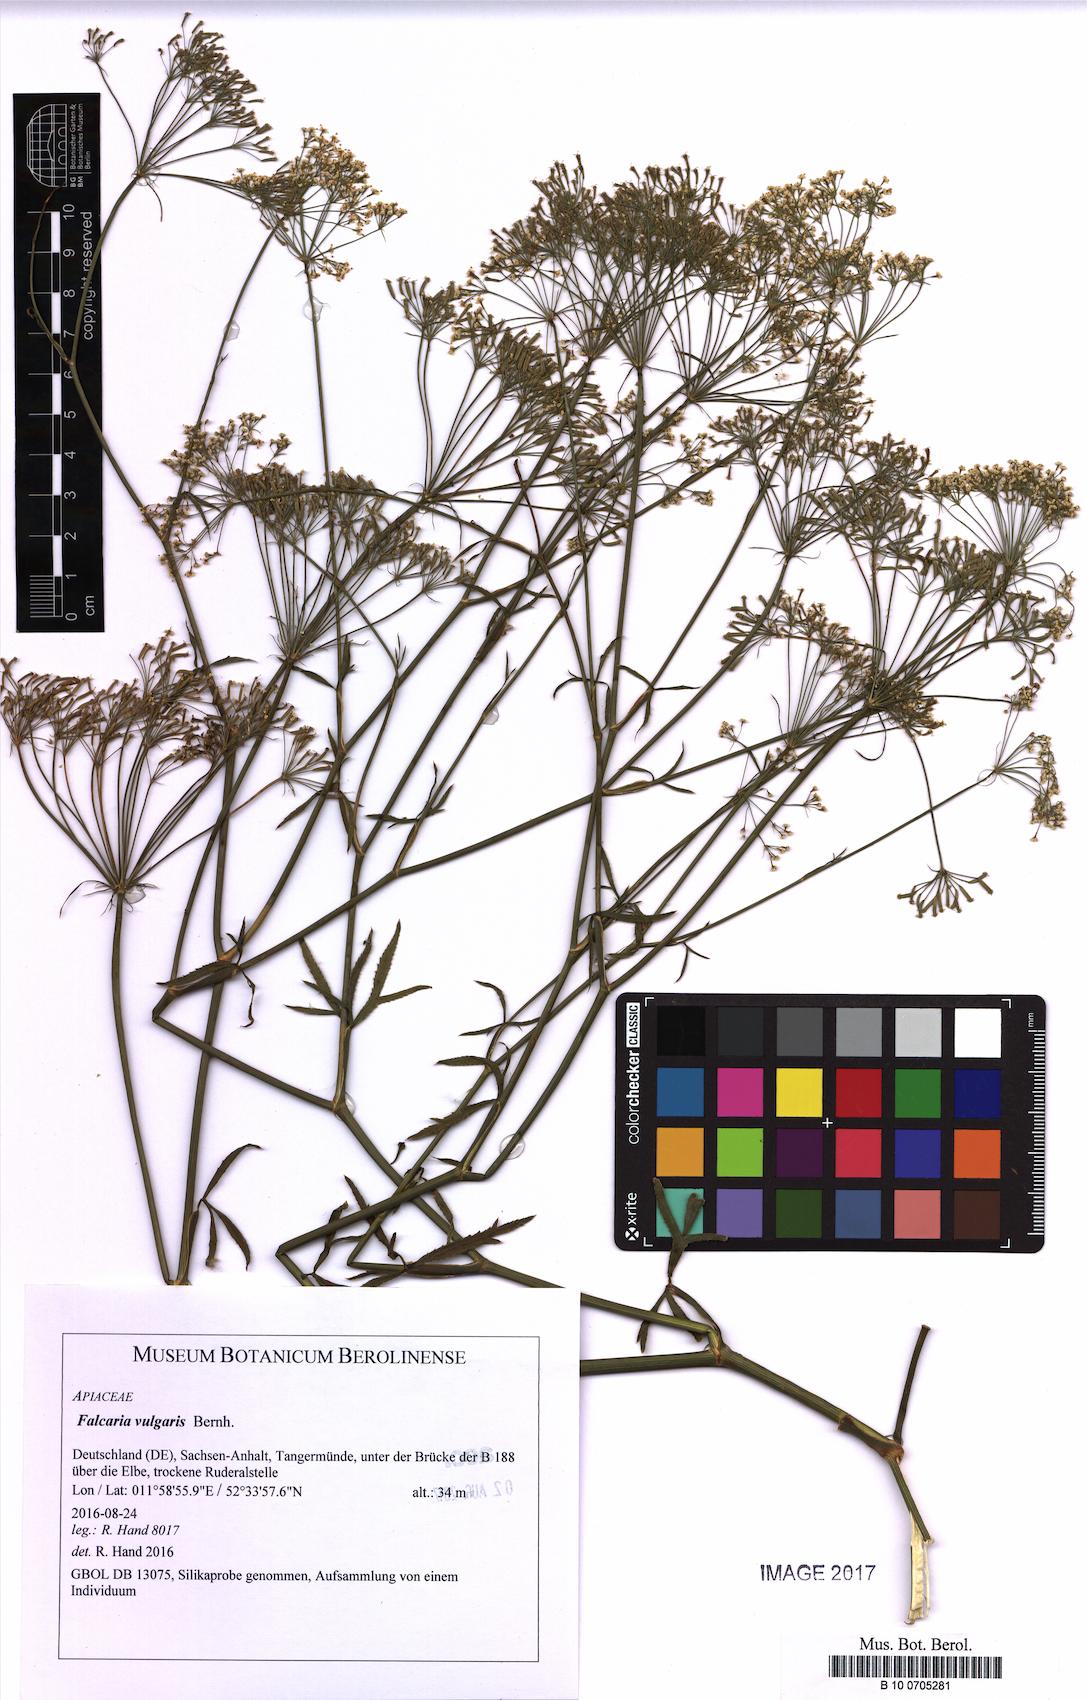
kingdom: Plantae
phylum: Tracheophyta
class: Magnoliopsida
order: Apiales
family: Apiaceae
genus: Falcaria
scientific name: Falcaria vulgaris
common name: Longleaf
